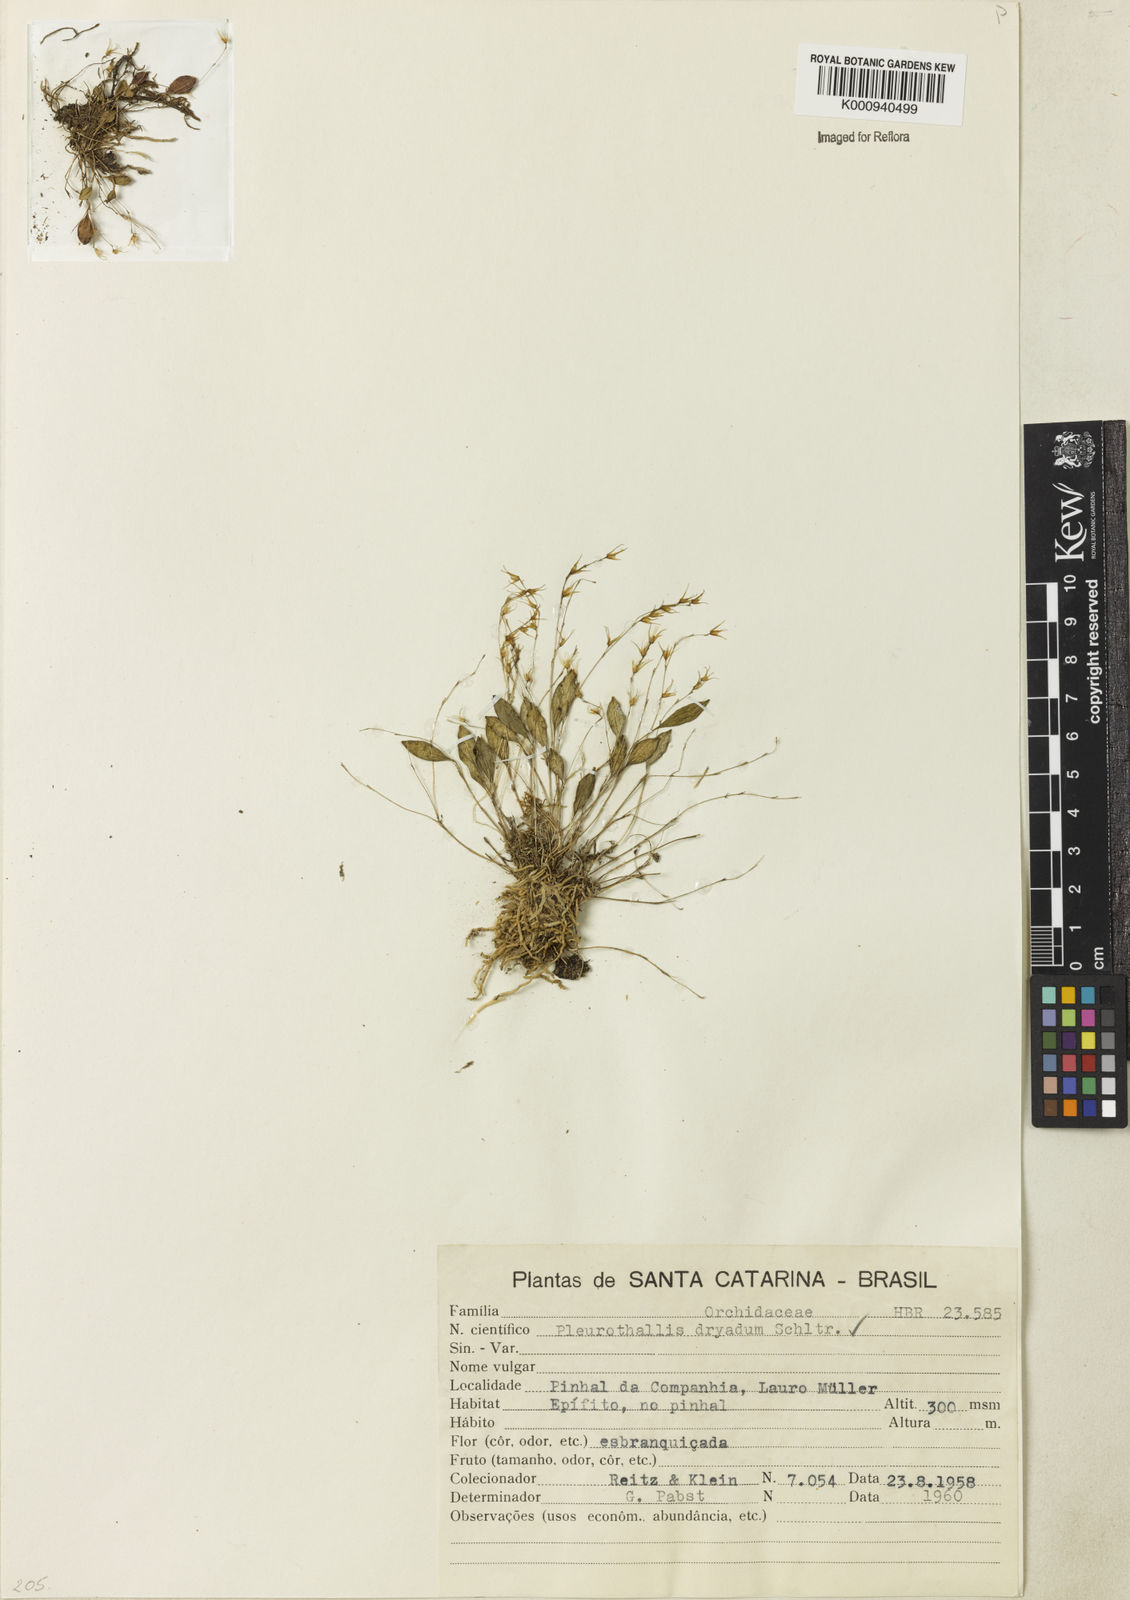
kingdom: Plantae
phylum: Tracheophyta
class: Liliopsida
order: Asparagales
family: Orchidaceae
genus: Anathallis
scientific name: Anathallis dryadum
